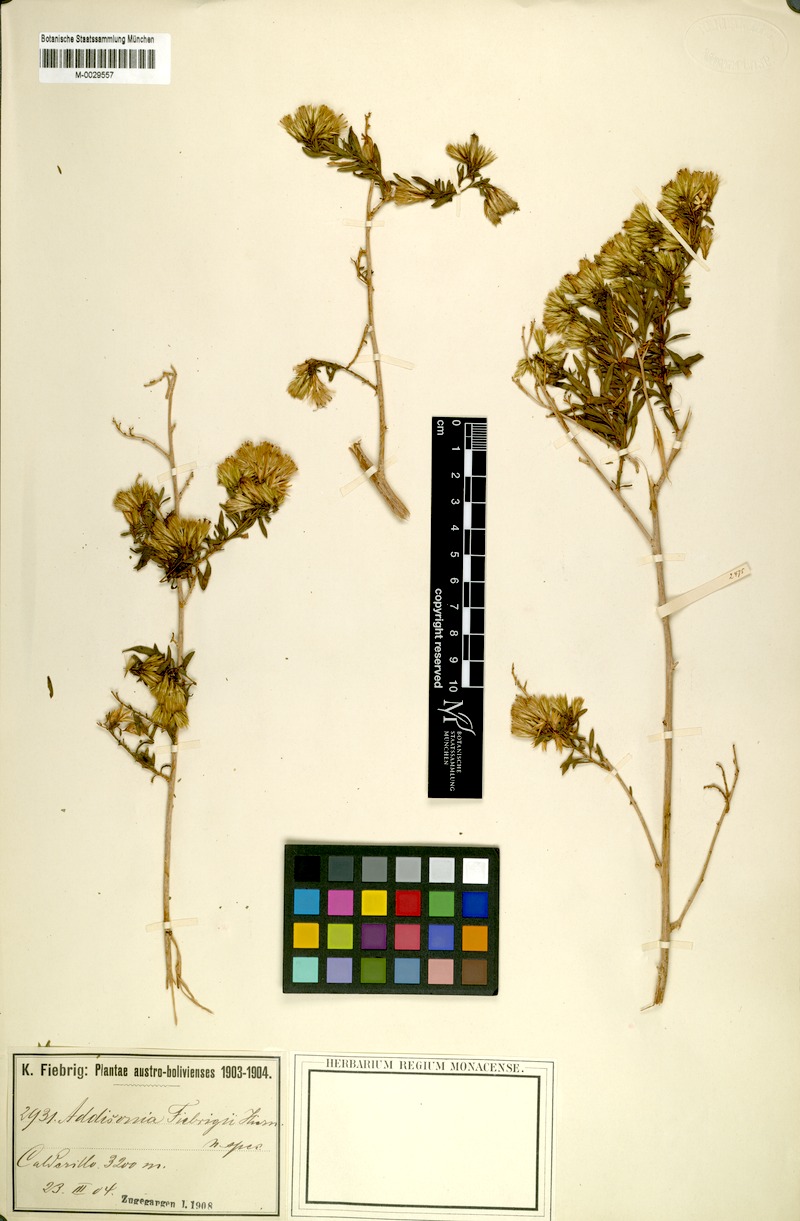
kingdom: Plantae
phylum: Tracheophyta
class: Magnoliopsida
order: Asterales
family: Asteraceae
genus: Helogyne
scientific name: Helogyne Addisonia fiebrigii
